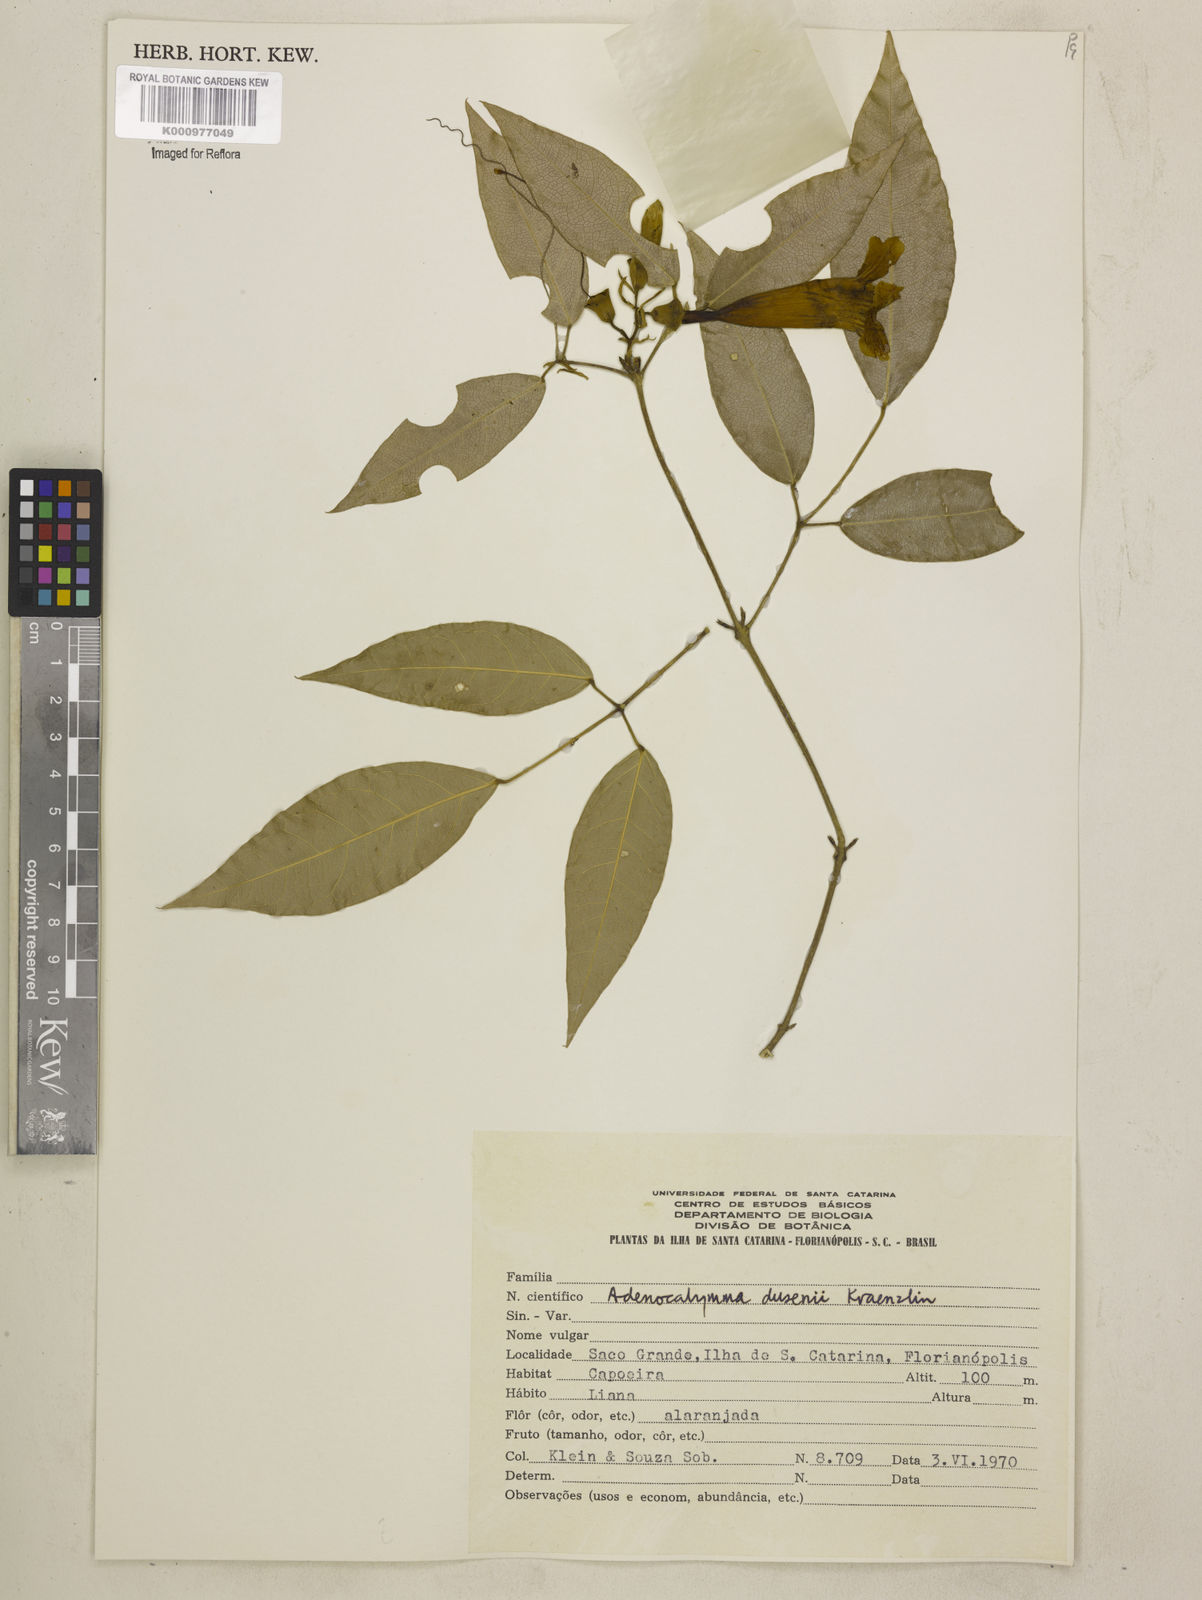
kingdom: Plantae
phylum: Tracheophyta
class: Magnoliopsida
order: Lamiales
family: Bignoniaceae
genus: Adenocalymma
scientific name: Adenocalymma dusenii
